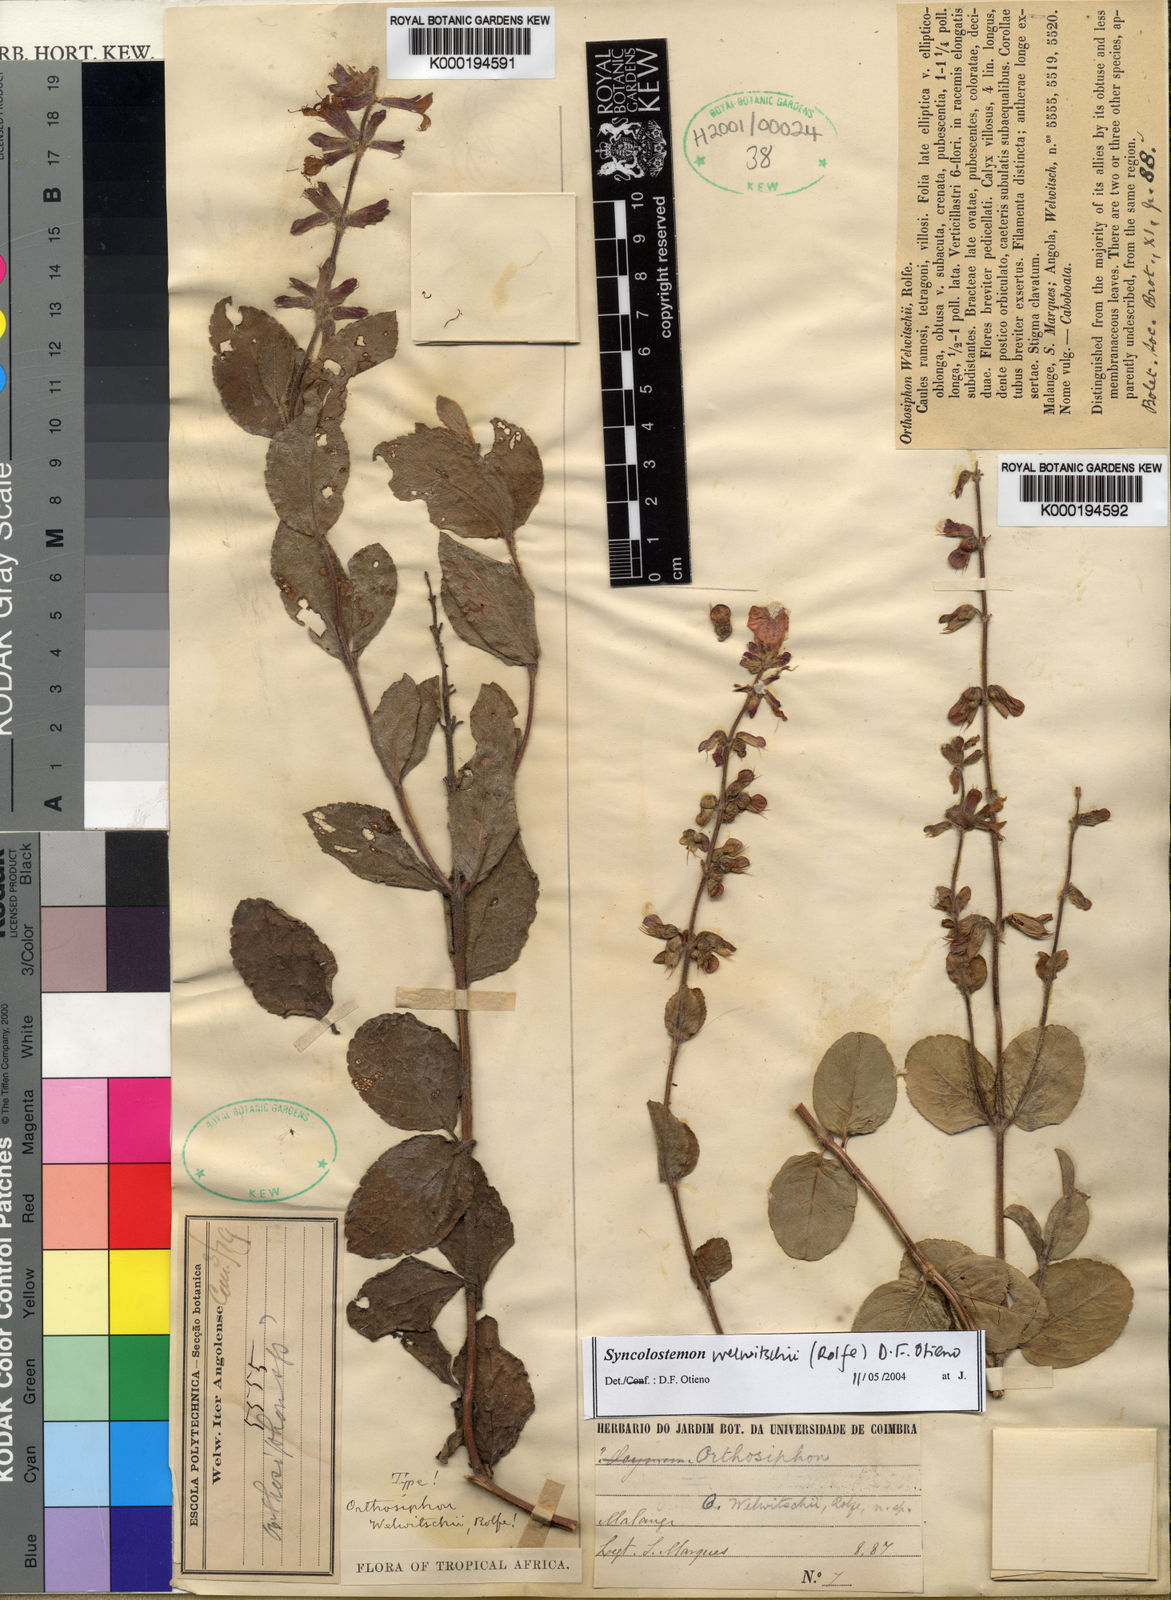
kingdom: Plantae
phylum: Tracheophyta
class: Magnoliopsida
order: Lamiales
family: Lamiaceae
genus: Syncolostemon
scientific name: Syncolostemon welwitschii
